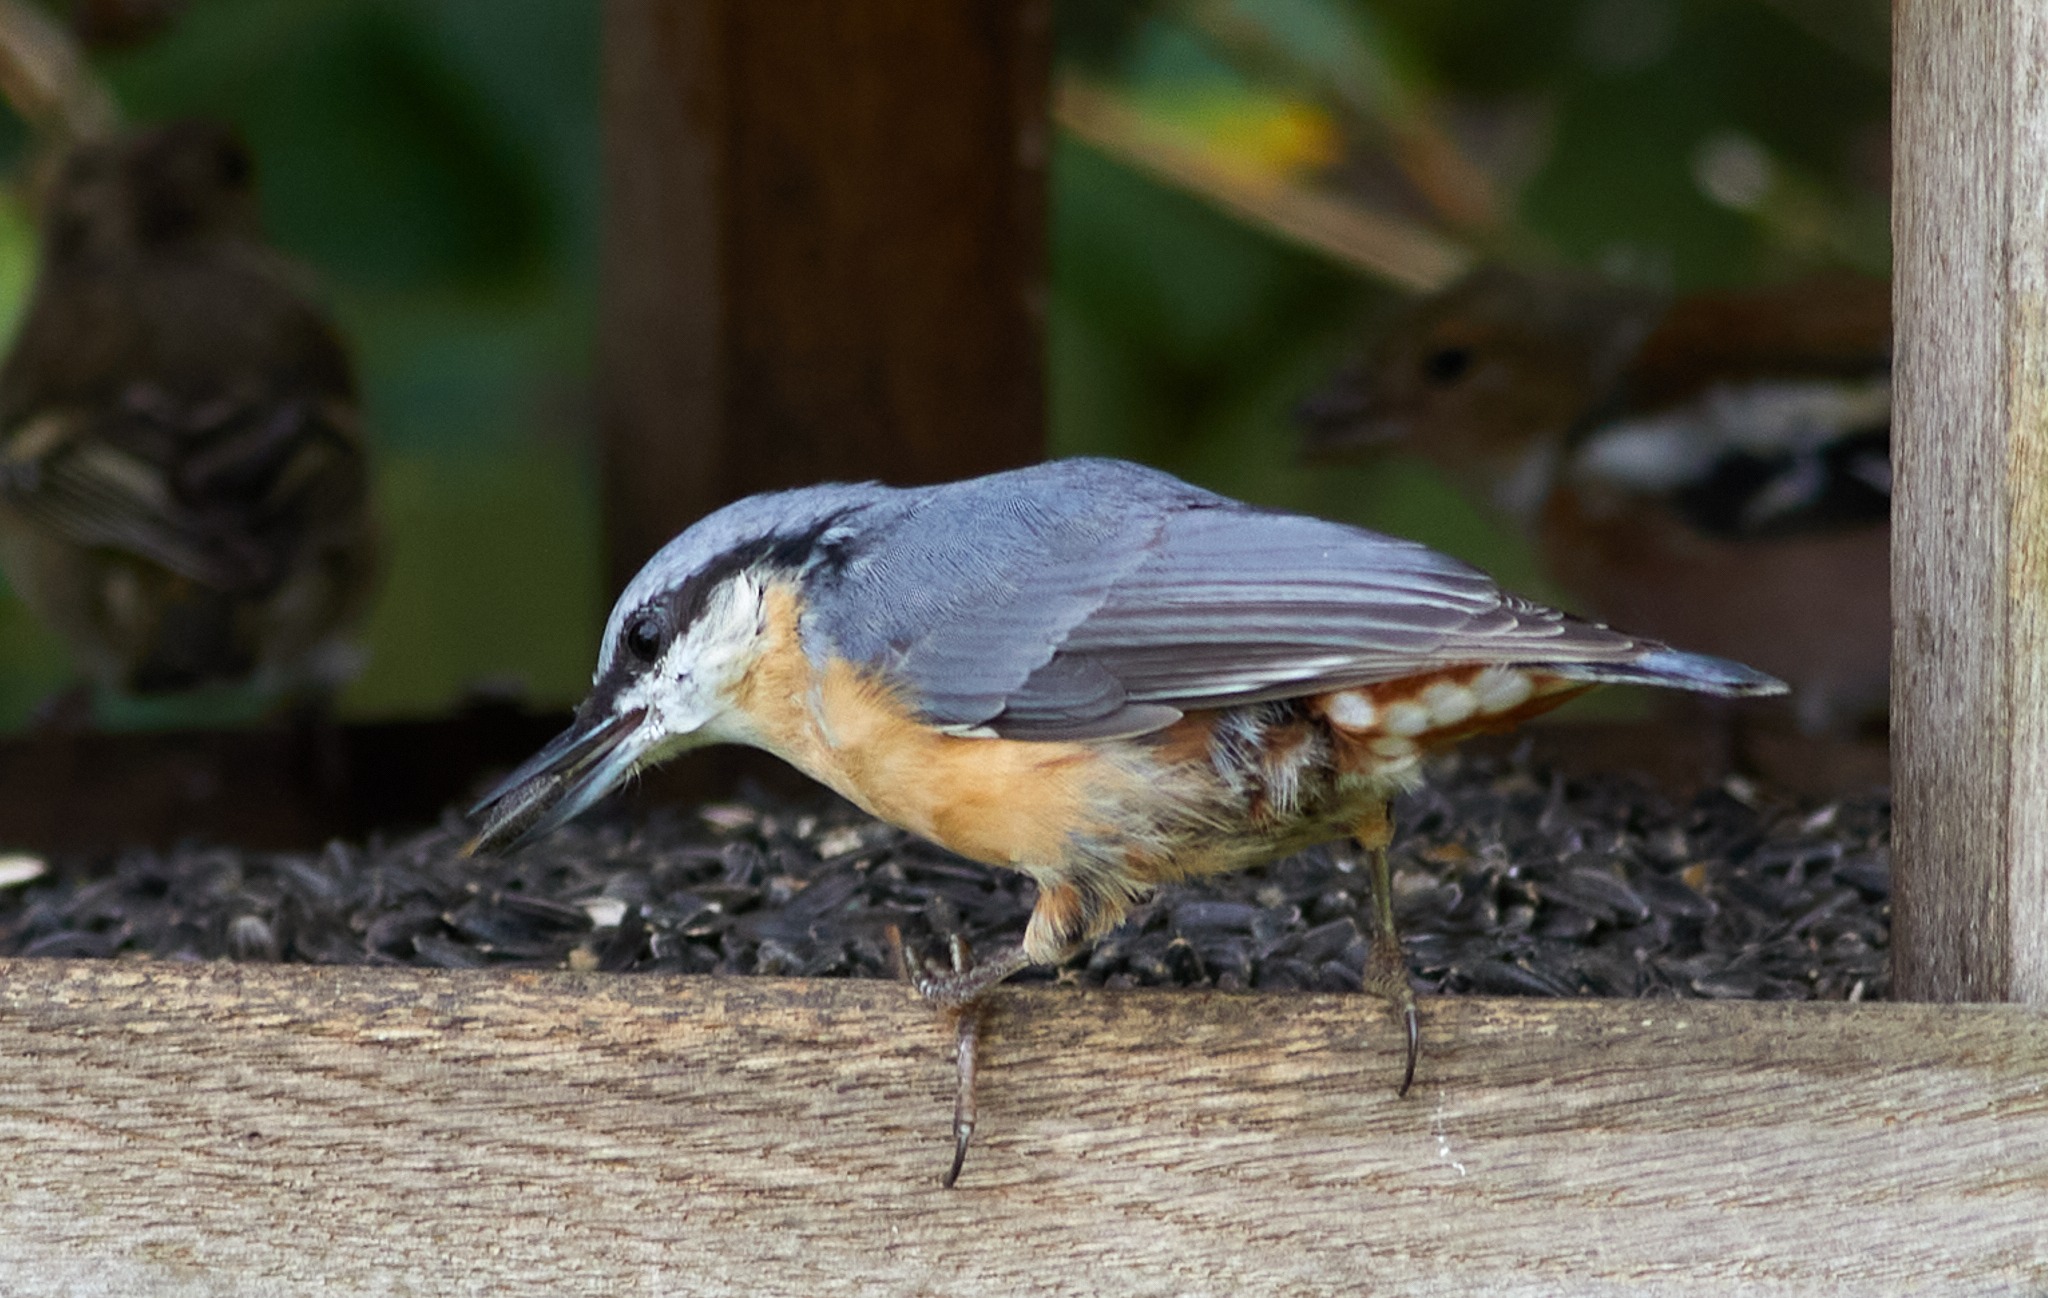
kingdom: Animalia
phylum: Chordata
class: Aves
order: Passeriformes
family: Sittidae
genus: Sitta
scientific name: Sitta europaea
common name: Spætmejse
